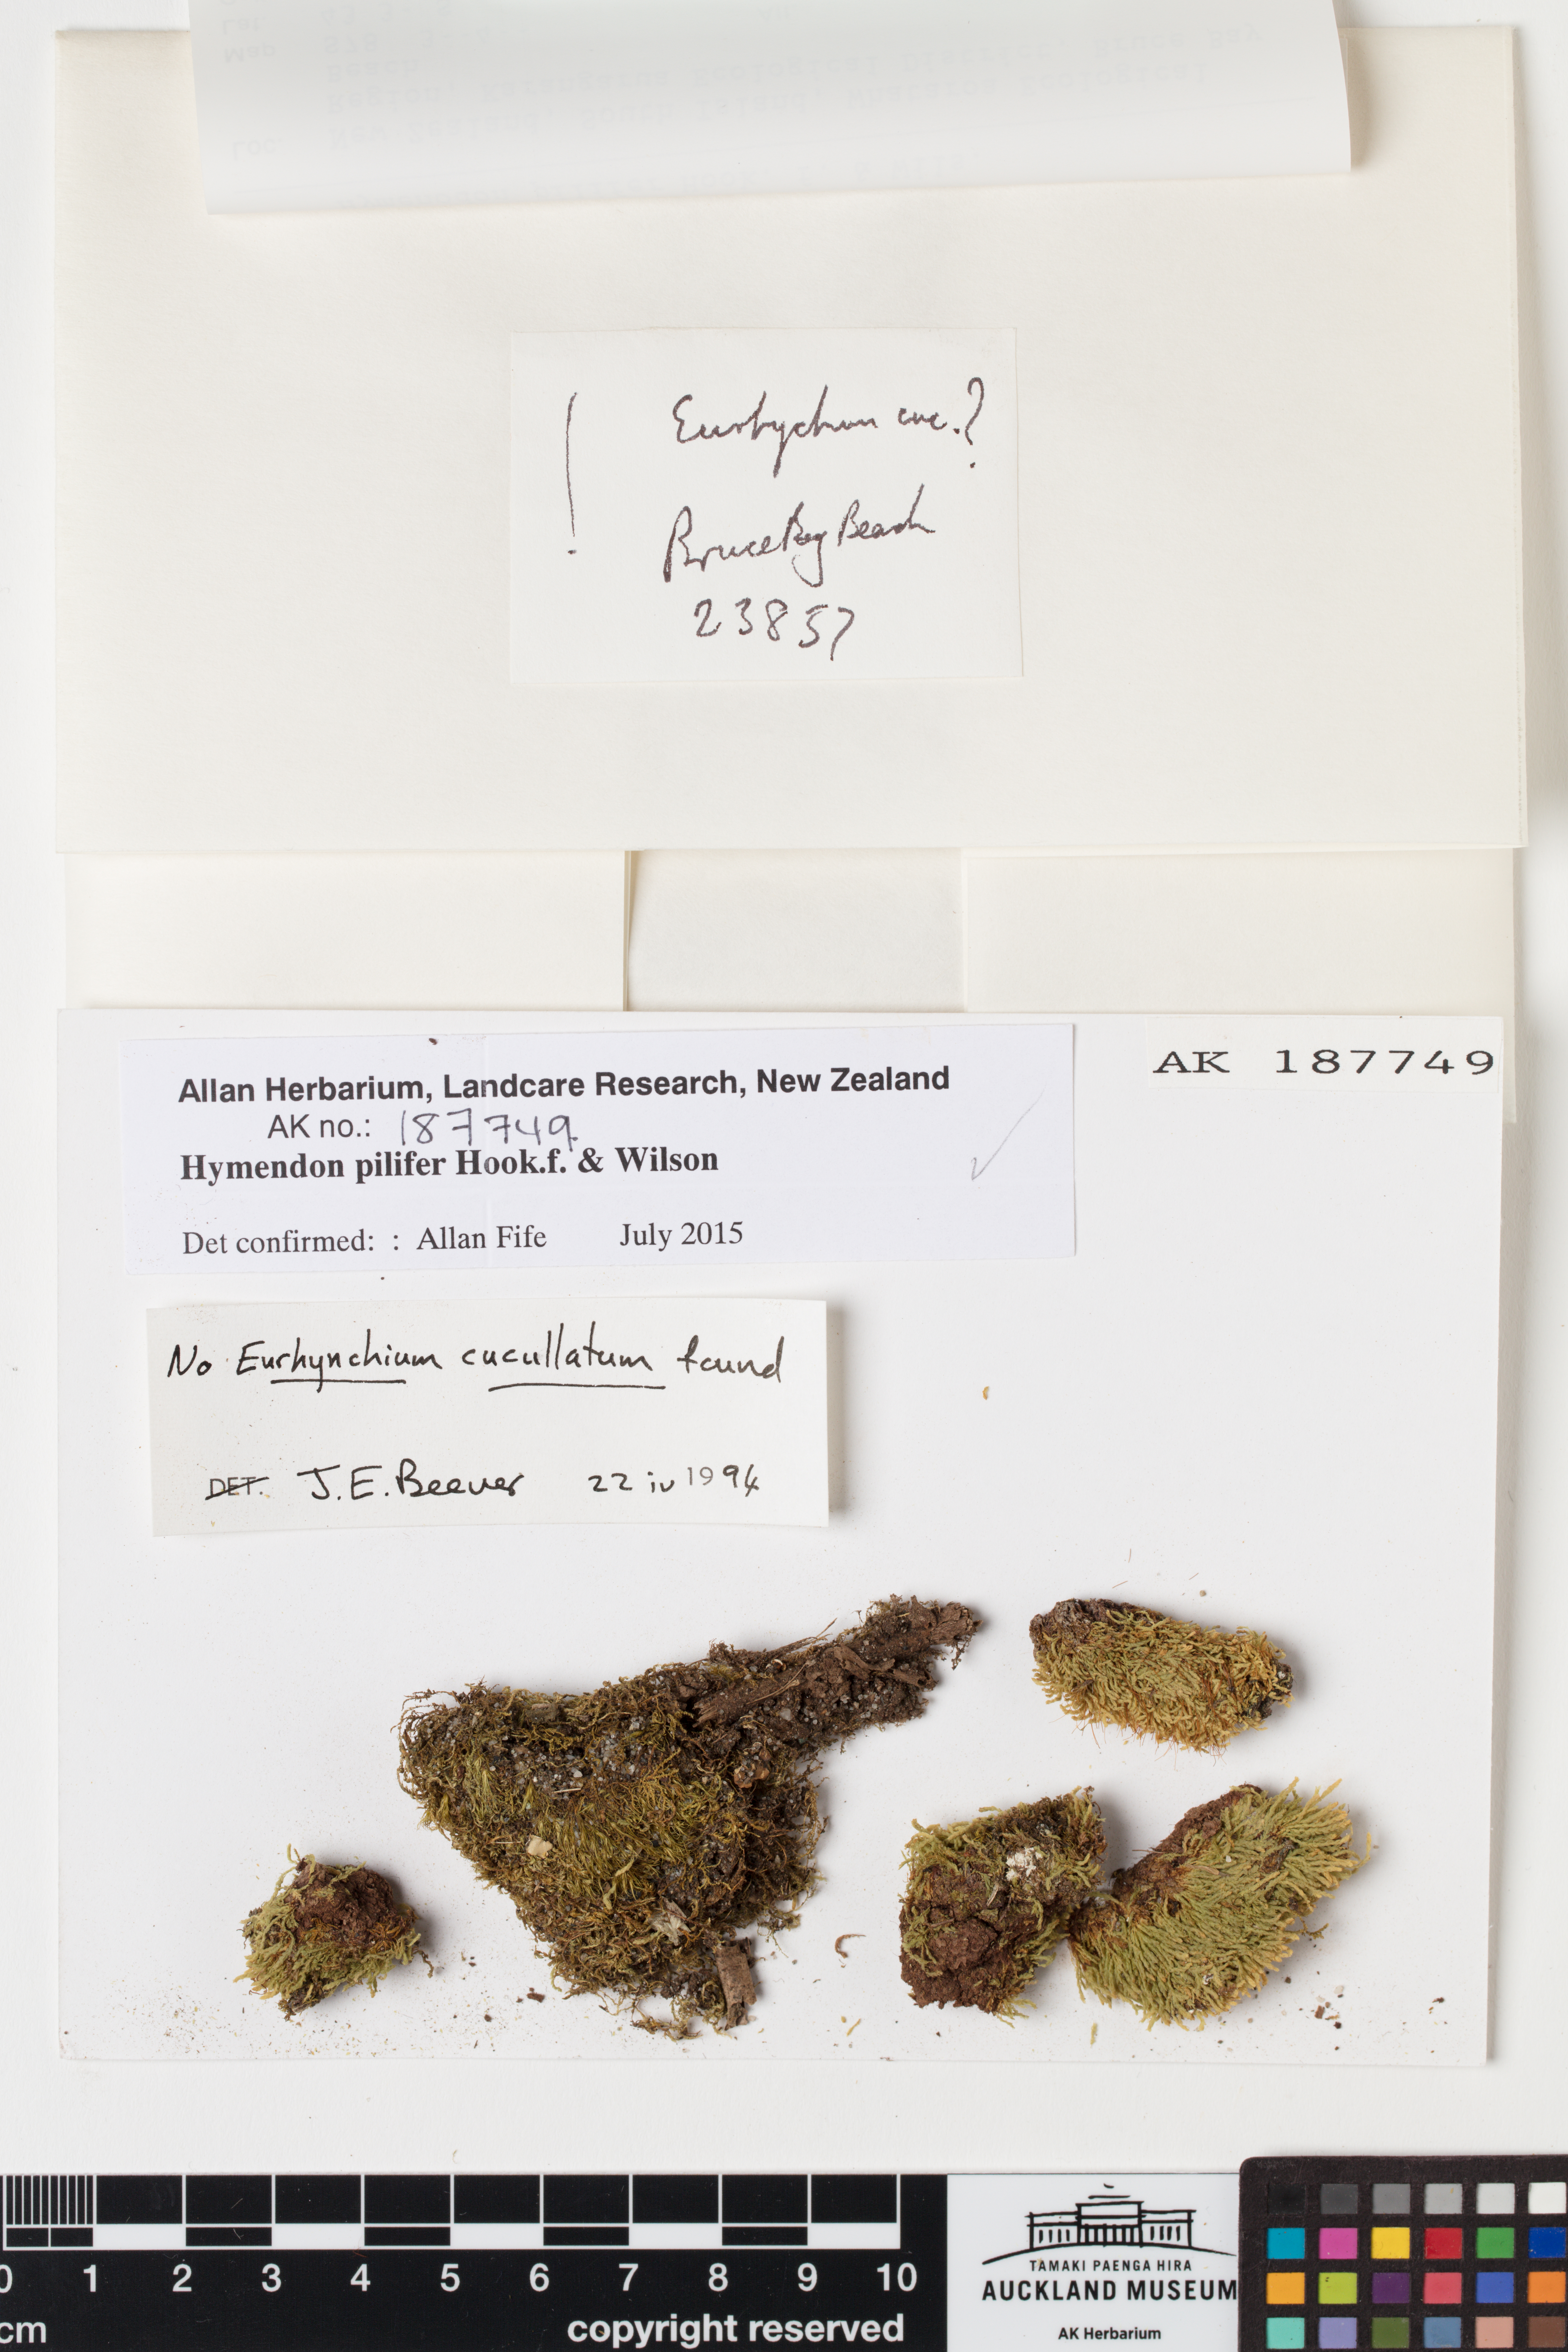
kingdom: Plantae
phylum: Bryophyta
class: Bryopsida
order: Orthodontiales
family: Orthodontiaceae
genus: Hymenodon
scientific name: Hymenodon pilifer
